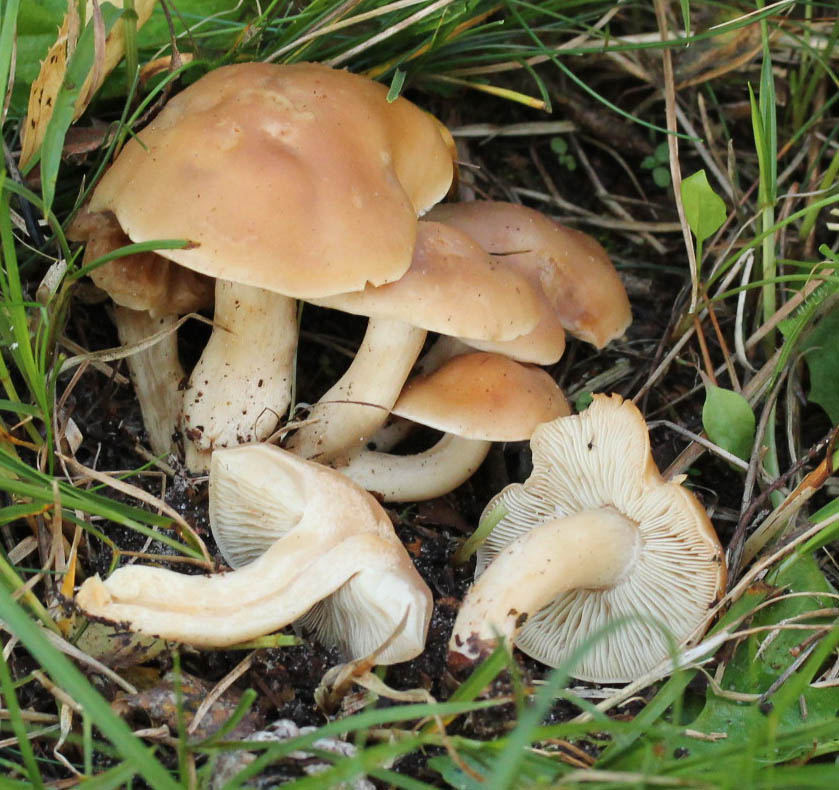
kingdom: Fungi
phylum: Basidiomycota
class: Agaricomycetes
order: Agaricales
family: Lyophyllaceae
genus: Calocybe
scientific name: Calocybe gambosa
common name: vårmusseron
